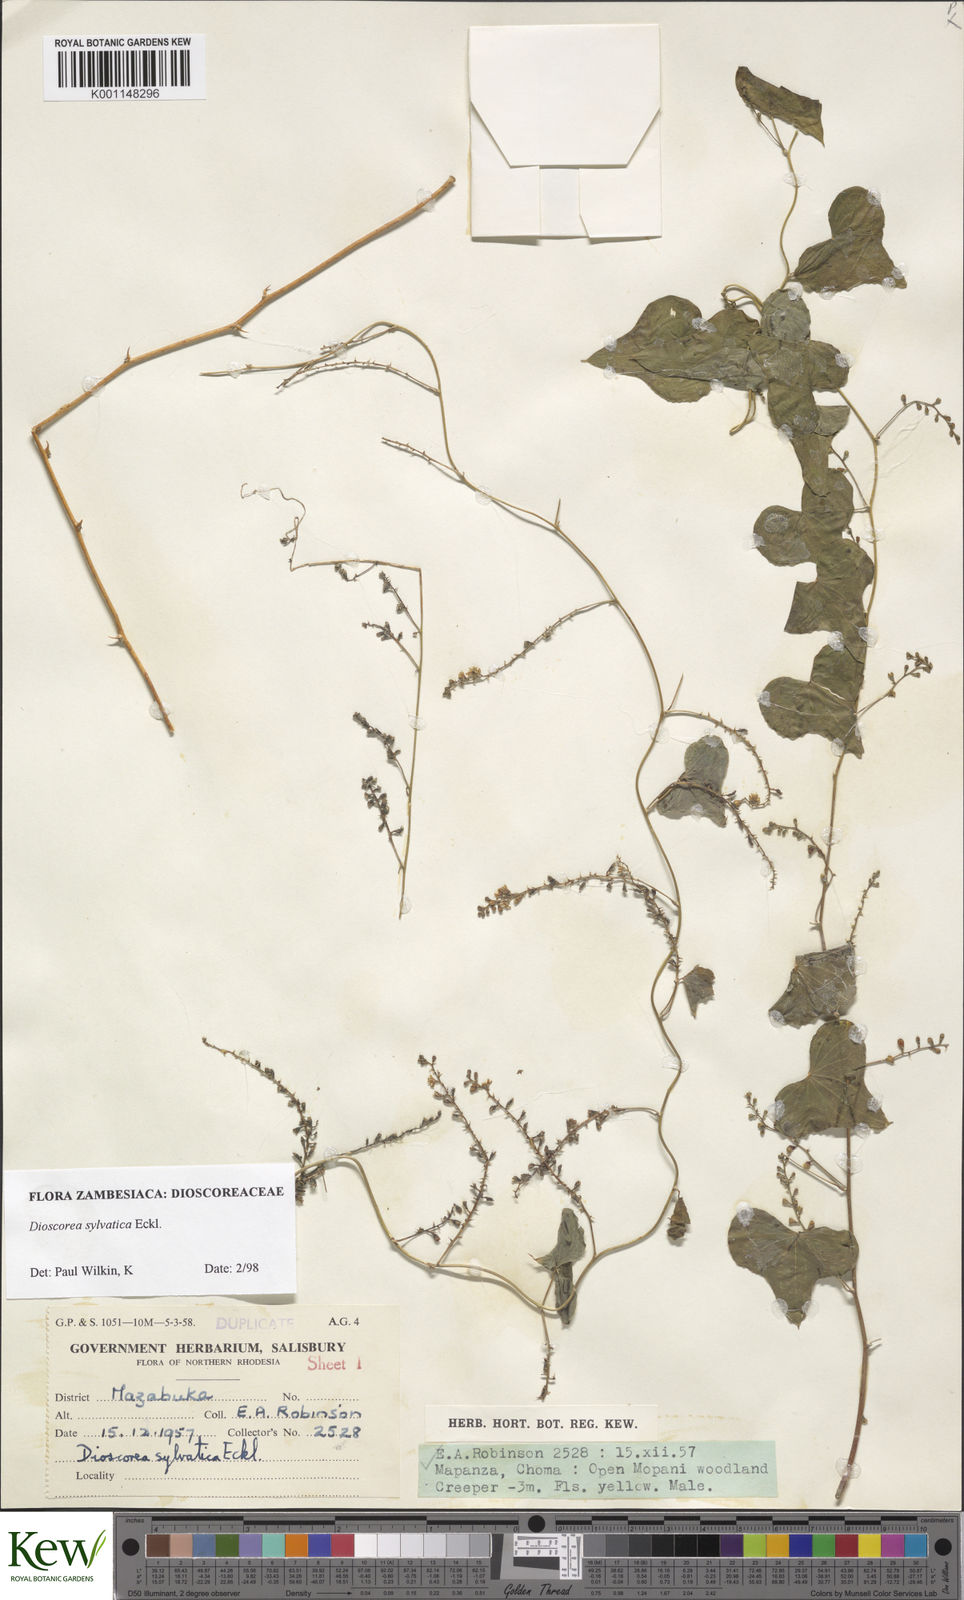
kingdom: Plantae
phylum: Tracheophyta
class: Liliopsida
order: Dioscoreales
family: Dioscoreaceae
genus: Dioscorea
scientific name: Dioscorea sylvatica
